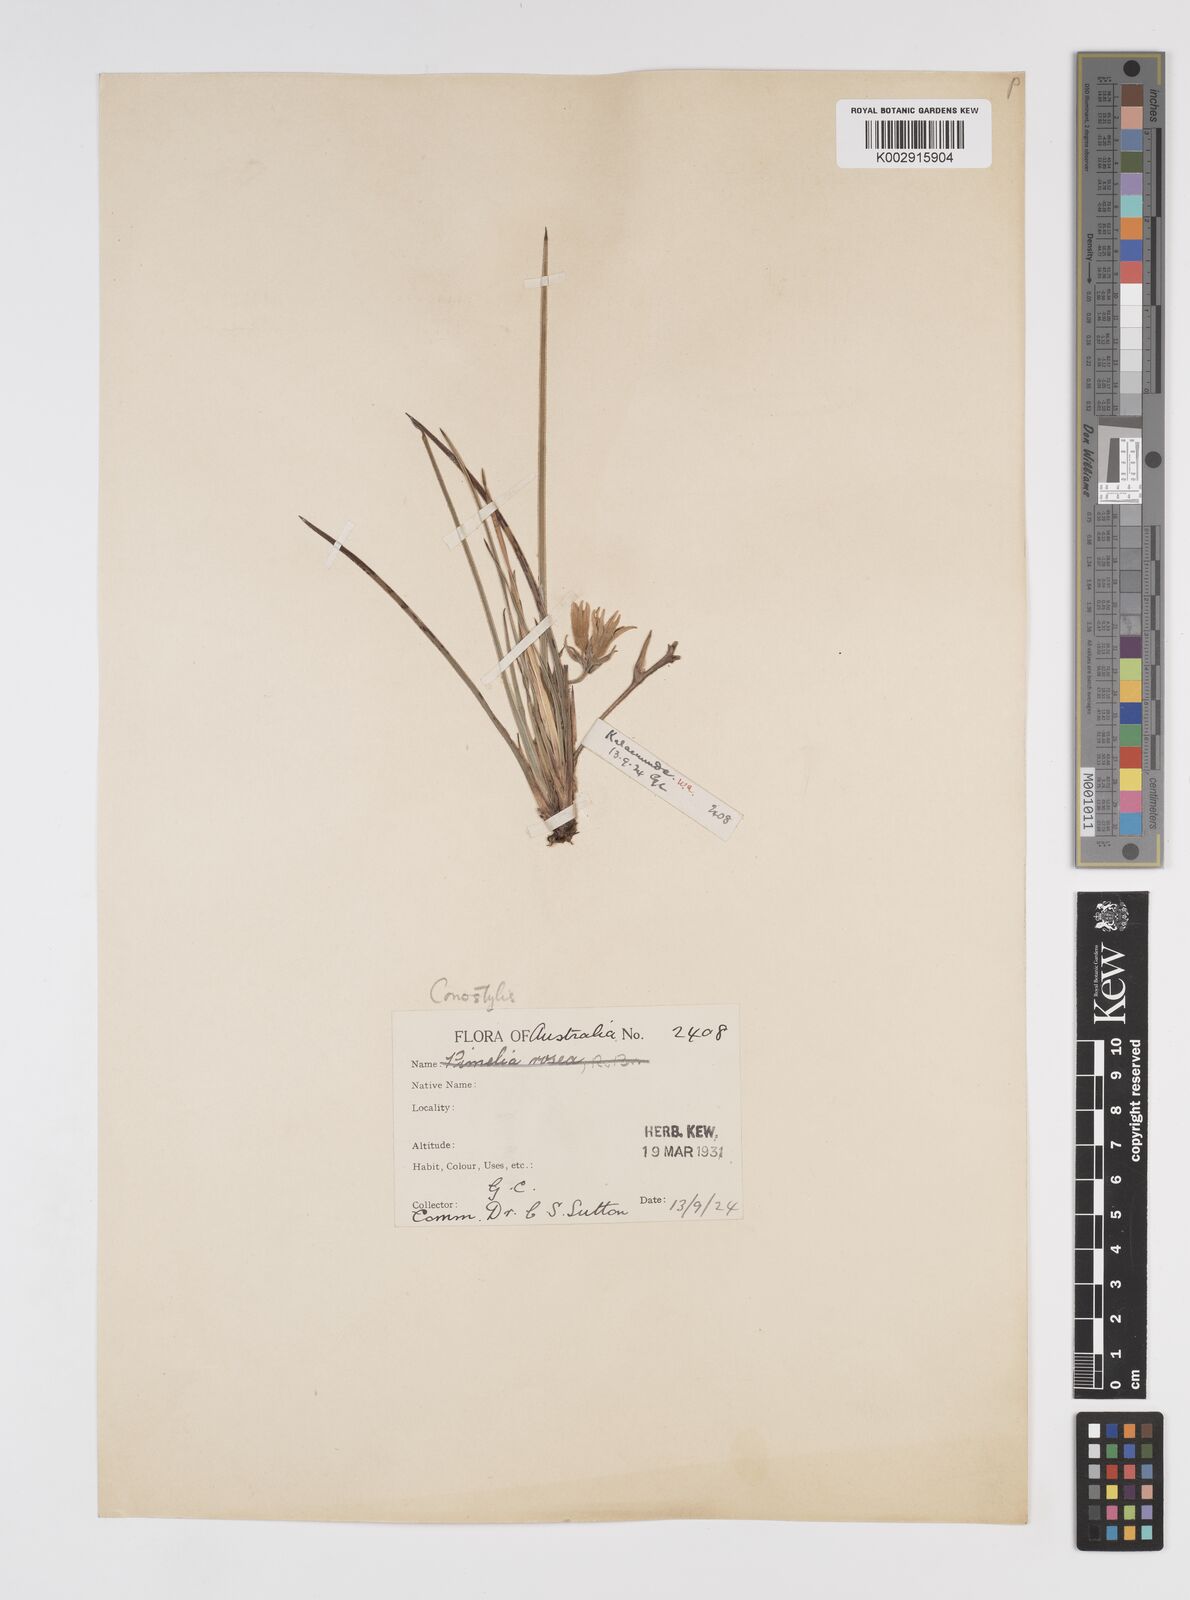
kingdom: Plantae
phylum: Tracheophyta
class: Liliopsida
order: Commelinales
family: Haemodoraceae
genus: Conostylis
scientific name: Conostylis
